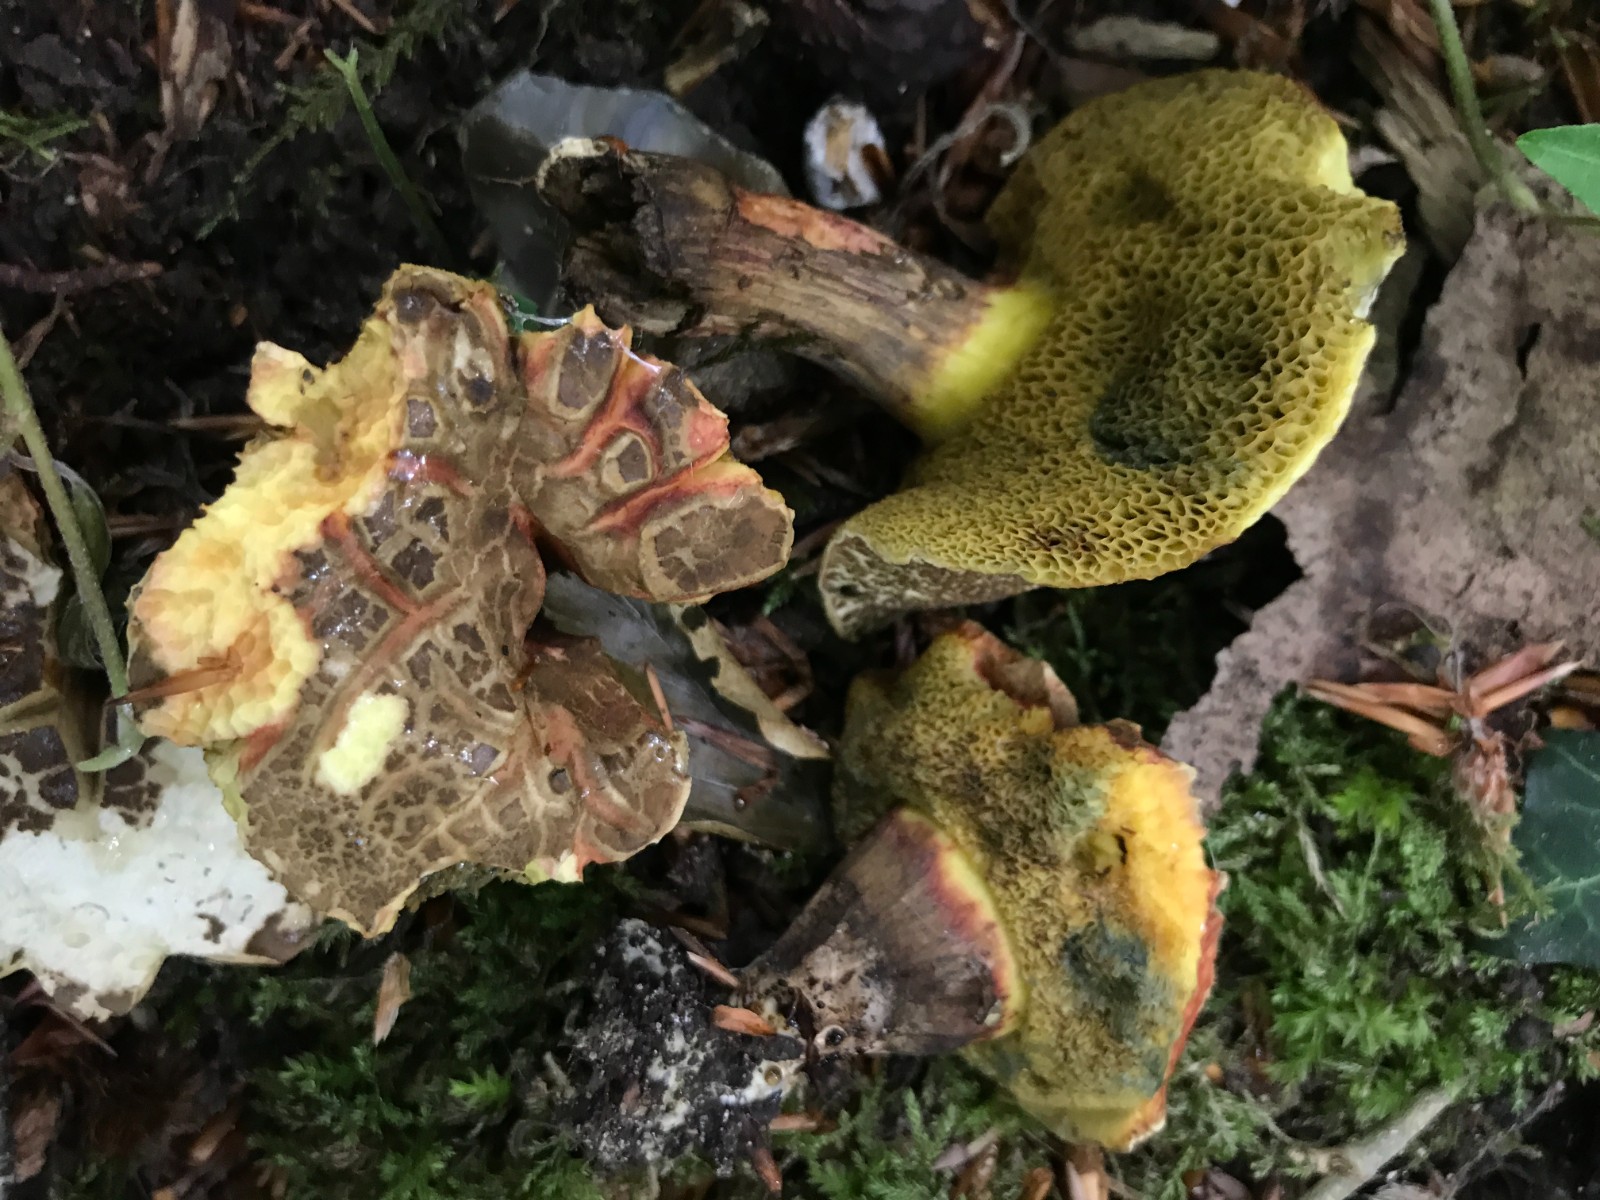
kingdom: Fungi
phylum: Basidiomycota
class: Agaricomycetes
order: Boletales
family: Boletaceae
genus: Xerocomellus
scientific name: Xerocomellus chrysenteron
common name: rødsprukken rørhat
